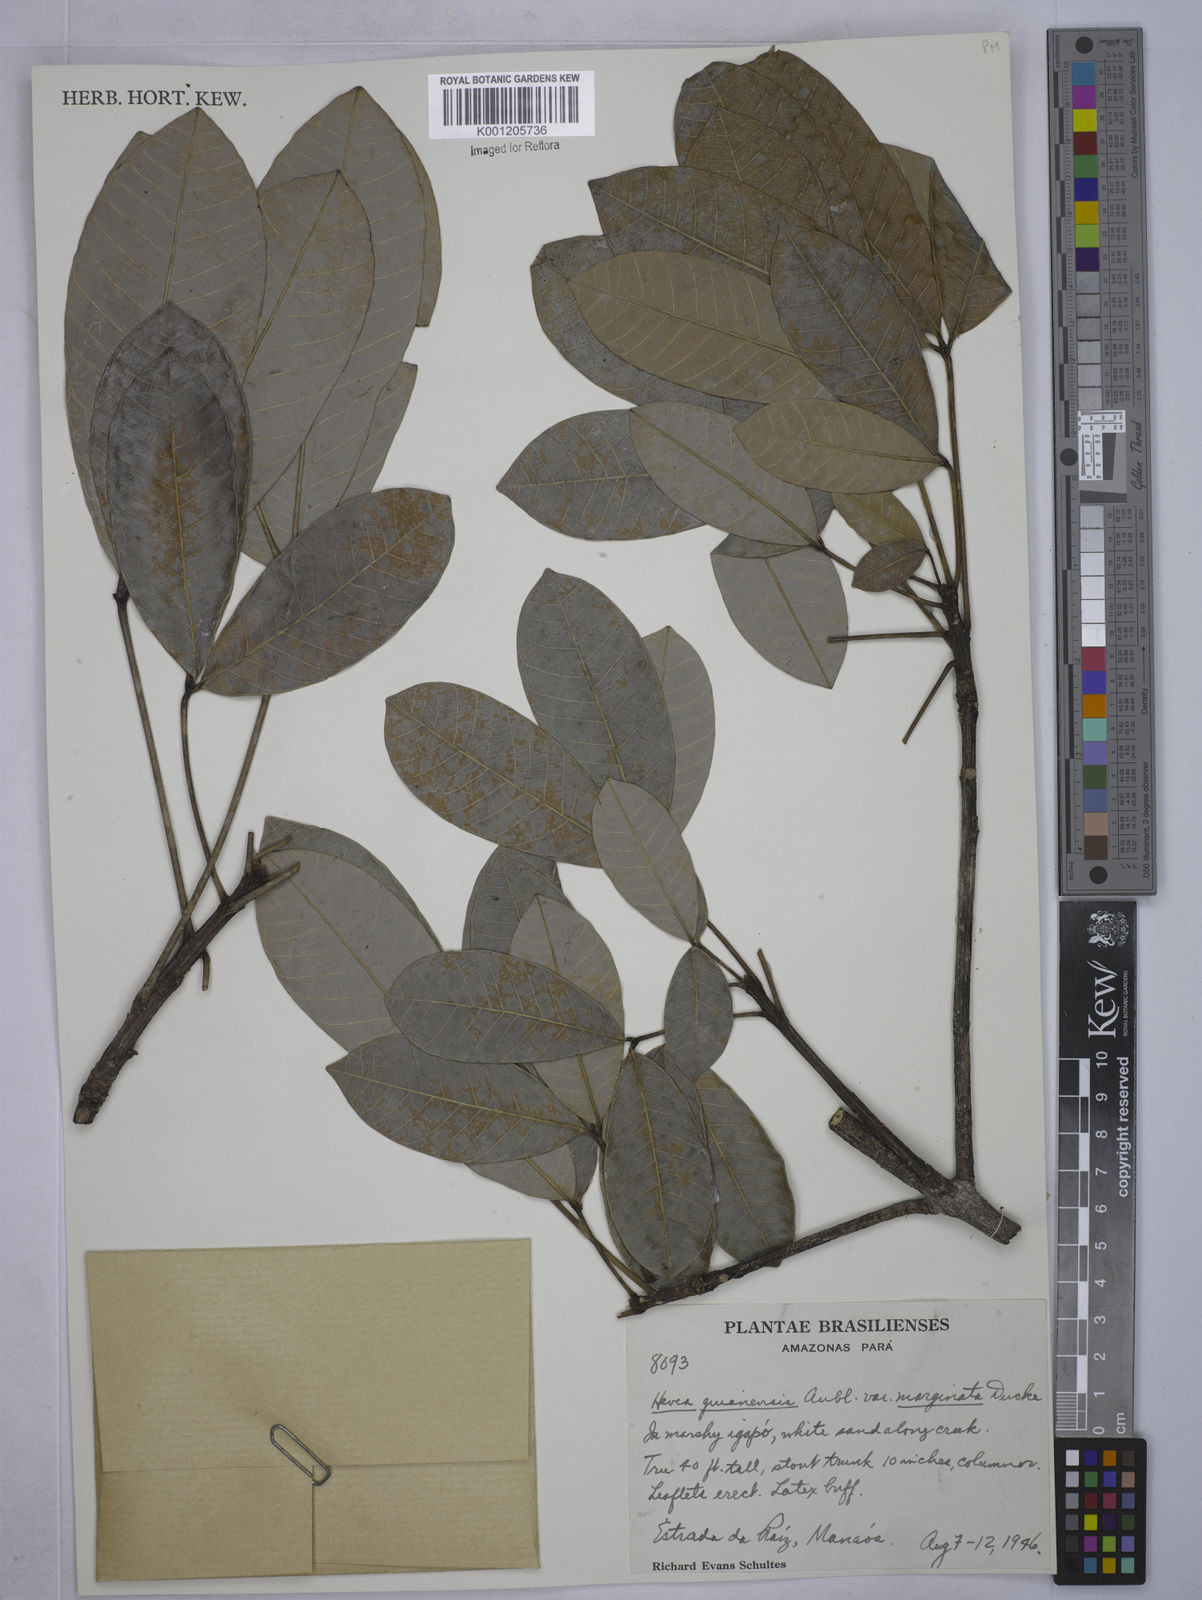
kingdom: Plantae
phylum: Tracheophyta
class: Magnoliopsida
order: Malpighiales
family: Euphorbiaceae
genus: Hevea
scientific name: Hevea guianensis
